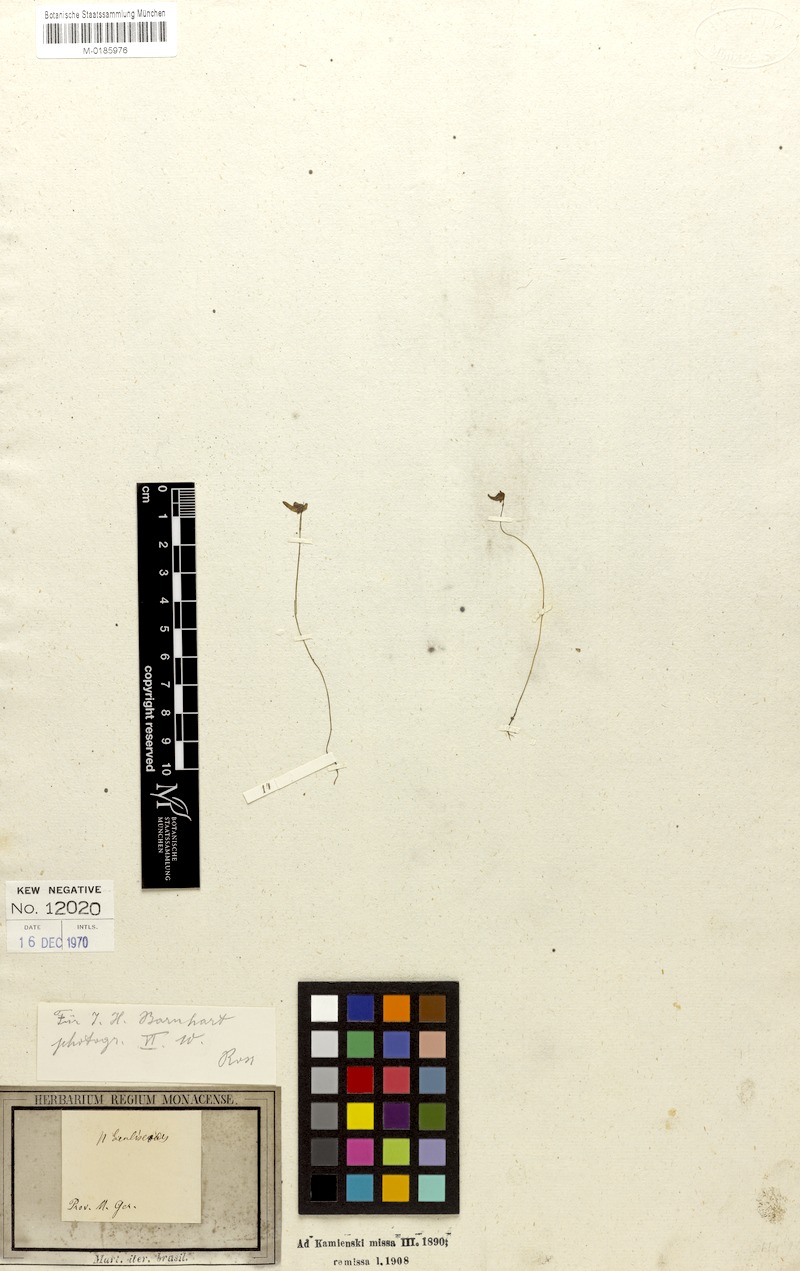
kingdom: Plantae
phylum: Tracheophyta
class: Magnoliopsida
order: Lamiales
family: Lentibulariaceae
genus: Utricularia
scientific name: Utricularia amethystina
